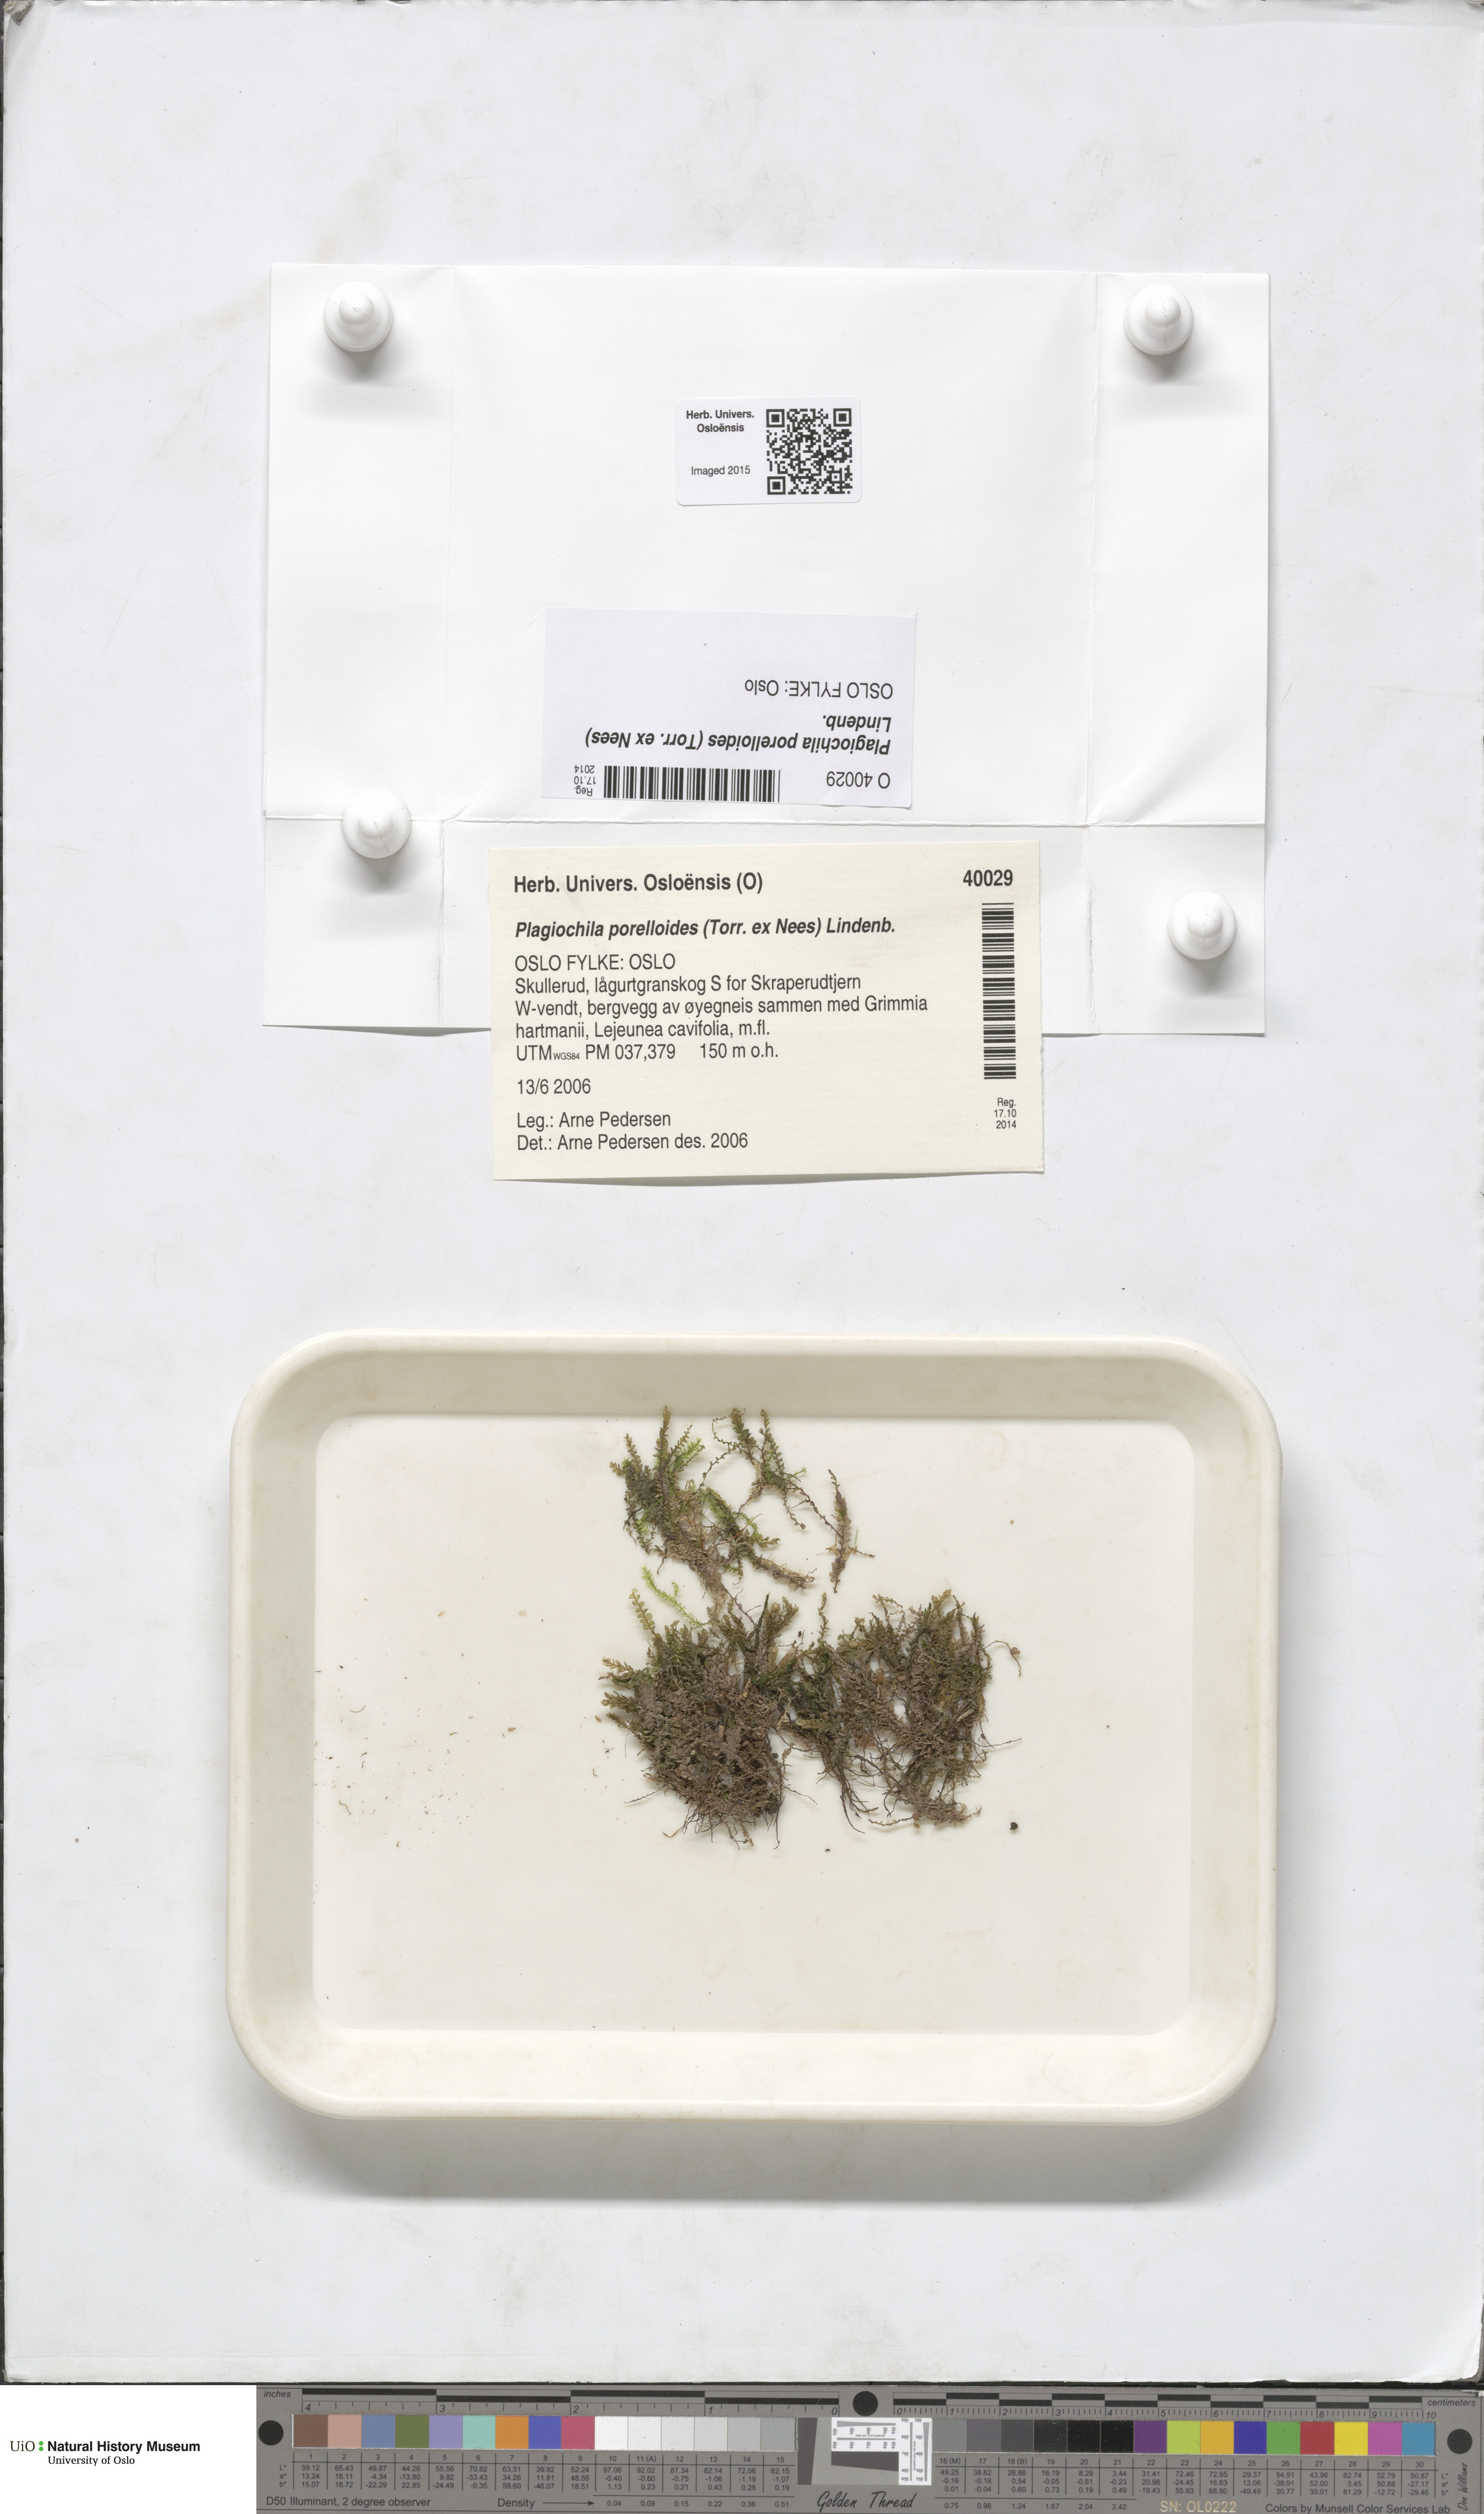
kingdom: Plantae
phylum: Marchantiophyta
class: Jungermanniopsida
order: Jungermanniales
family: Plagiochilaceae
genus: Plagiochila
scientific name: Plagiochila porelloides
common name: Lesser featherwort
